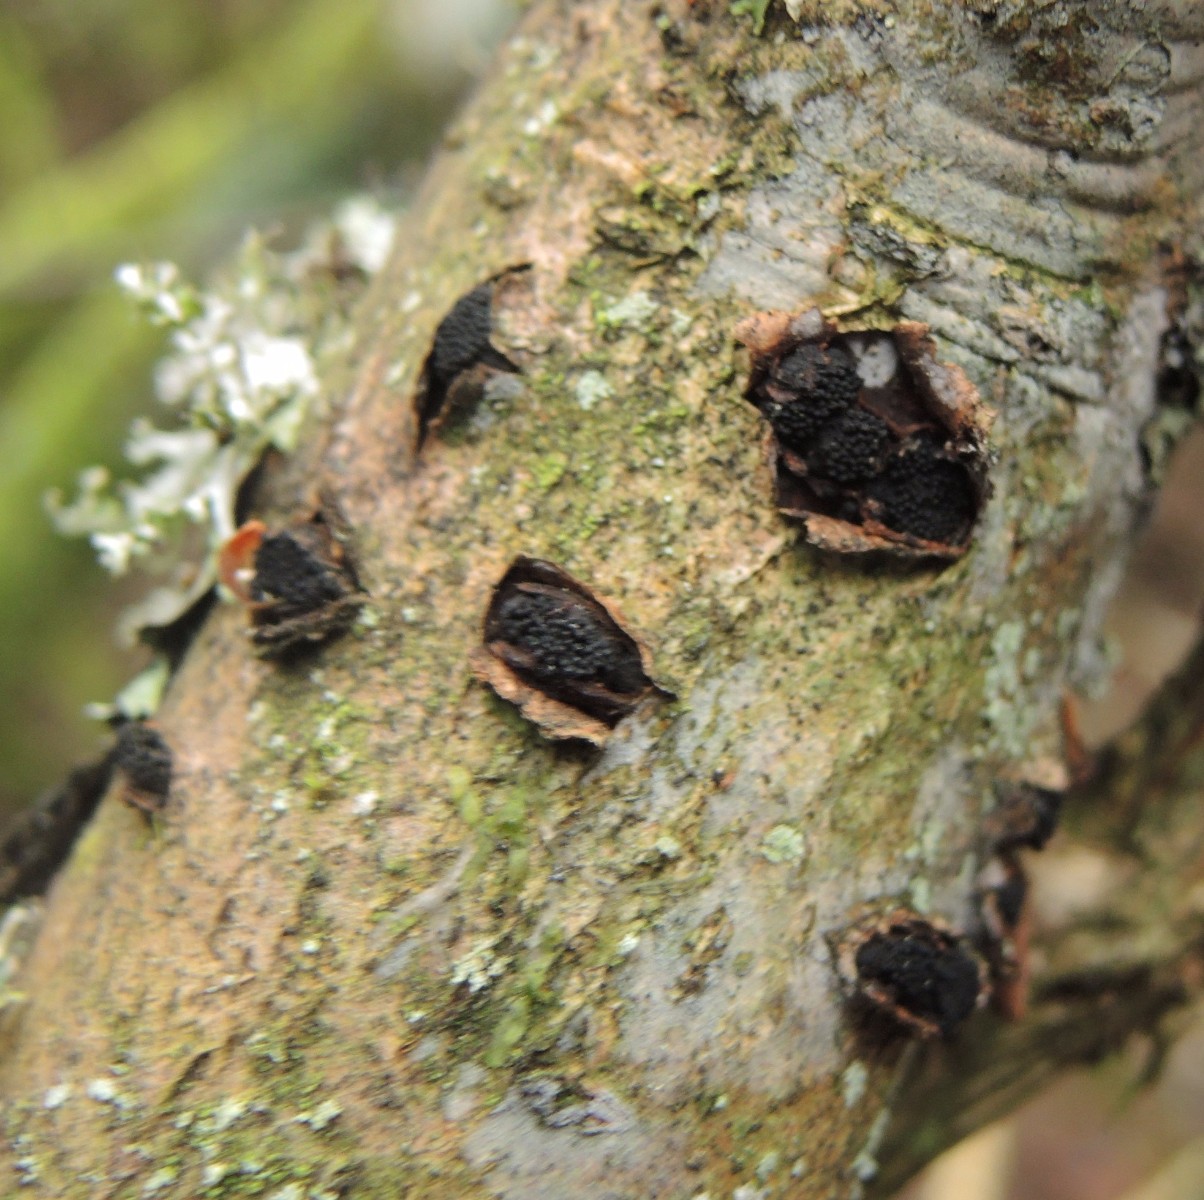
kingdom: Fungi
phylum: Ascomycota
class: Sordariomycetes
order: Xylariales
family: Diatrypaceae
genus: Eutypella
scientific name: Eutypella sorbi
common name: rønne-kulskorpe
